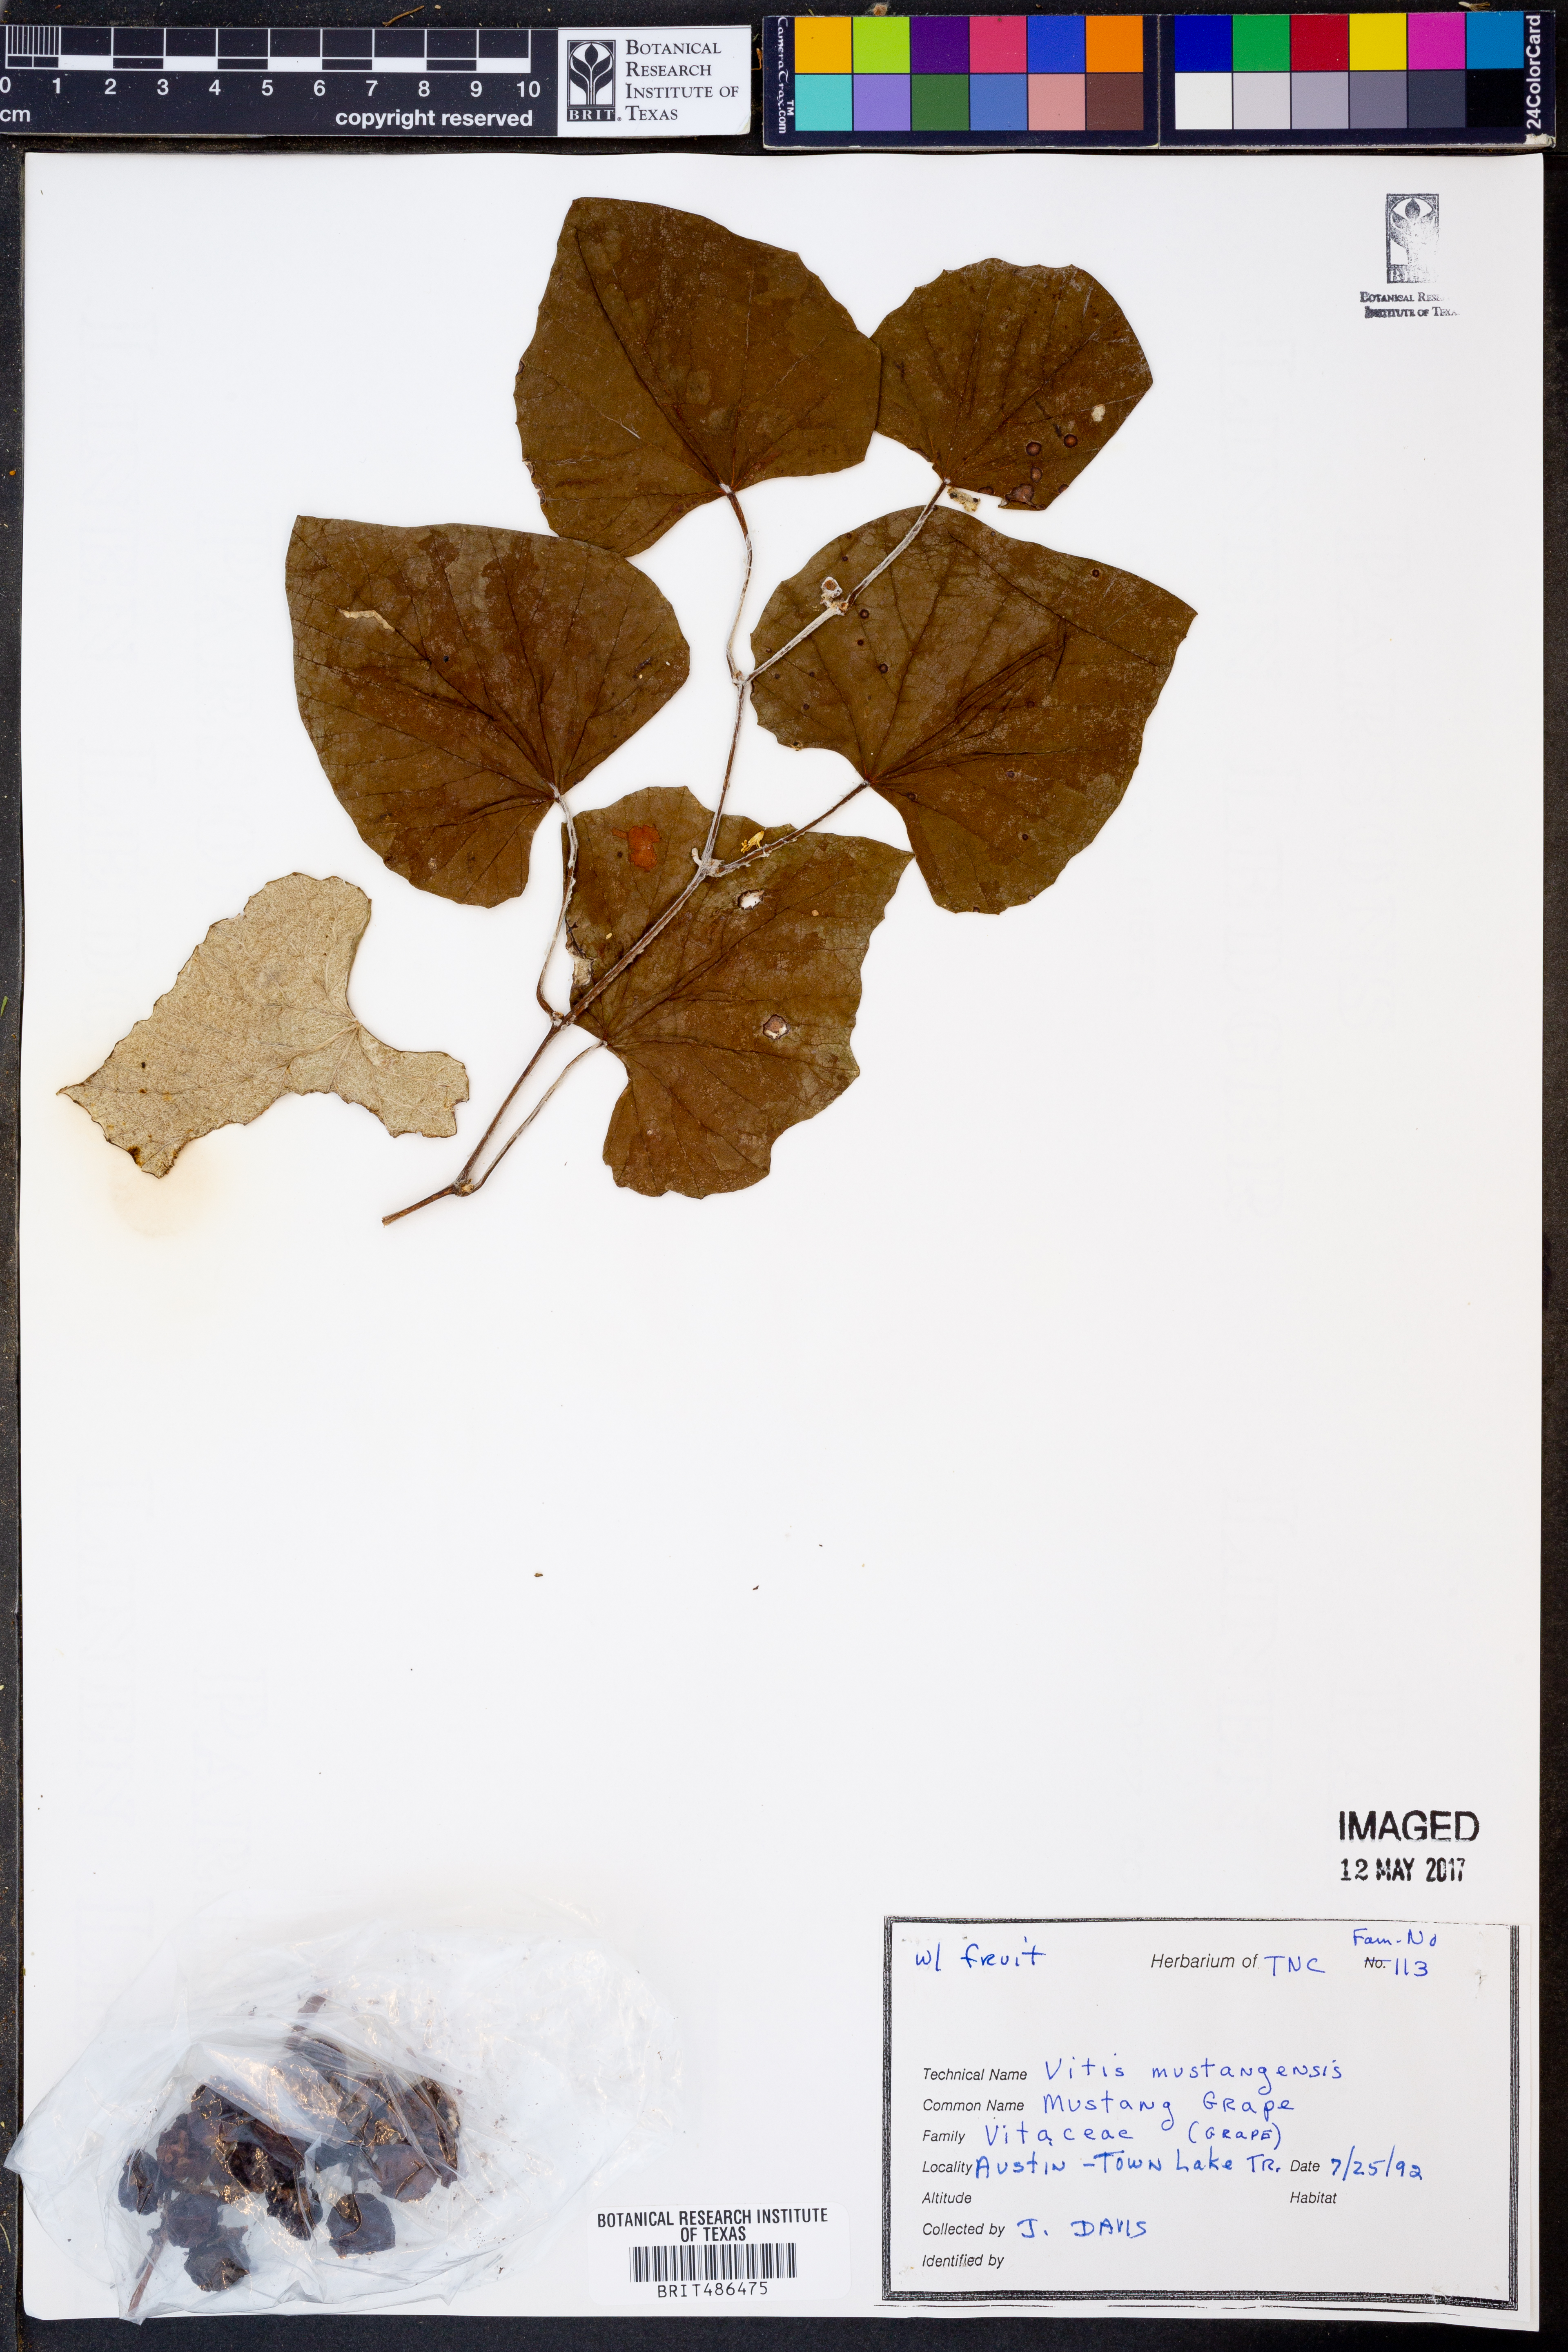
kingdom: Plantae
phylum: Tracheophyta
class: Magnoliopsida
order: Vitales
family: Vitaceae
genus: Vitis
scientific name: Vitis mustangensis
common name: Mustang grape
